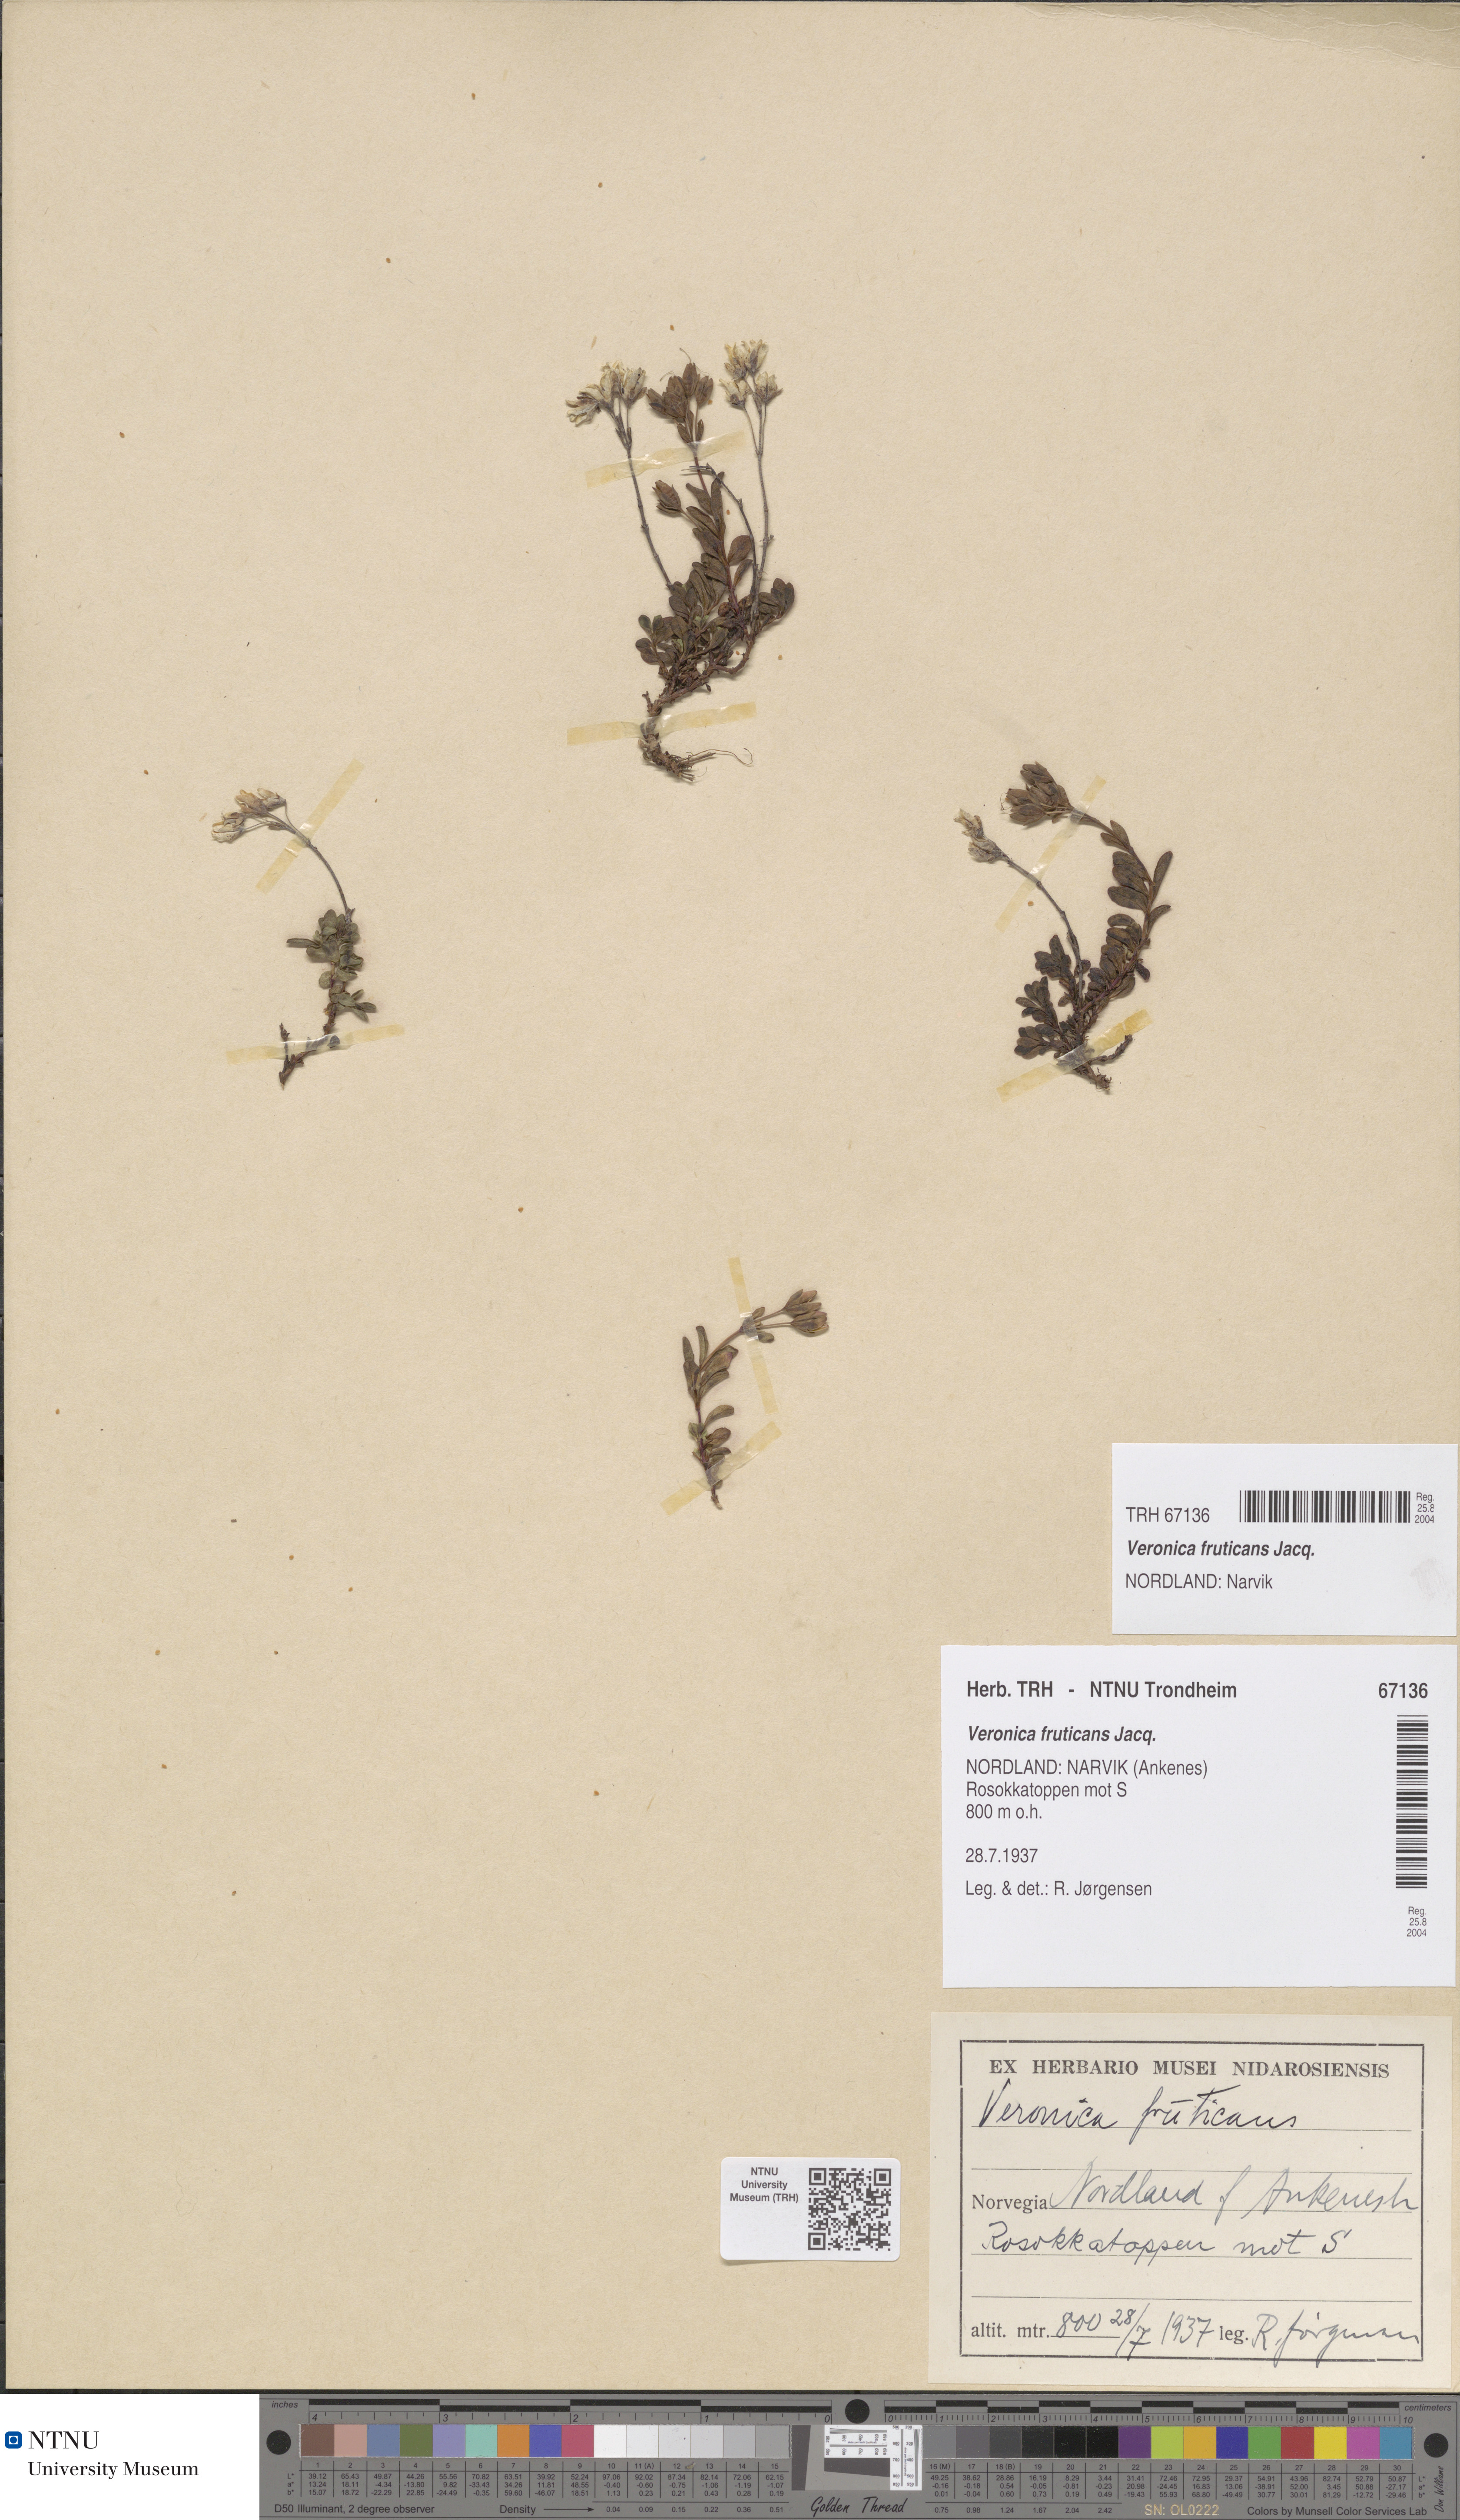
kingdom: Plantae
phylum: Tracheophyta
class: Magnoliopsida
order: Lamiales
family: Plantaginaceae
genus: Veronica
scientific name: Veronica fruticans
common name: Rock speedwell
